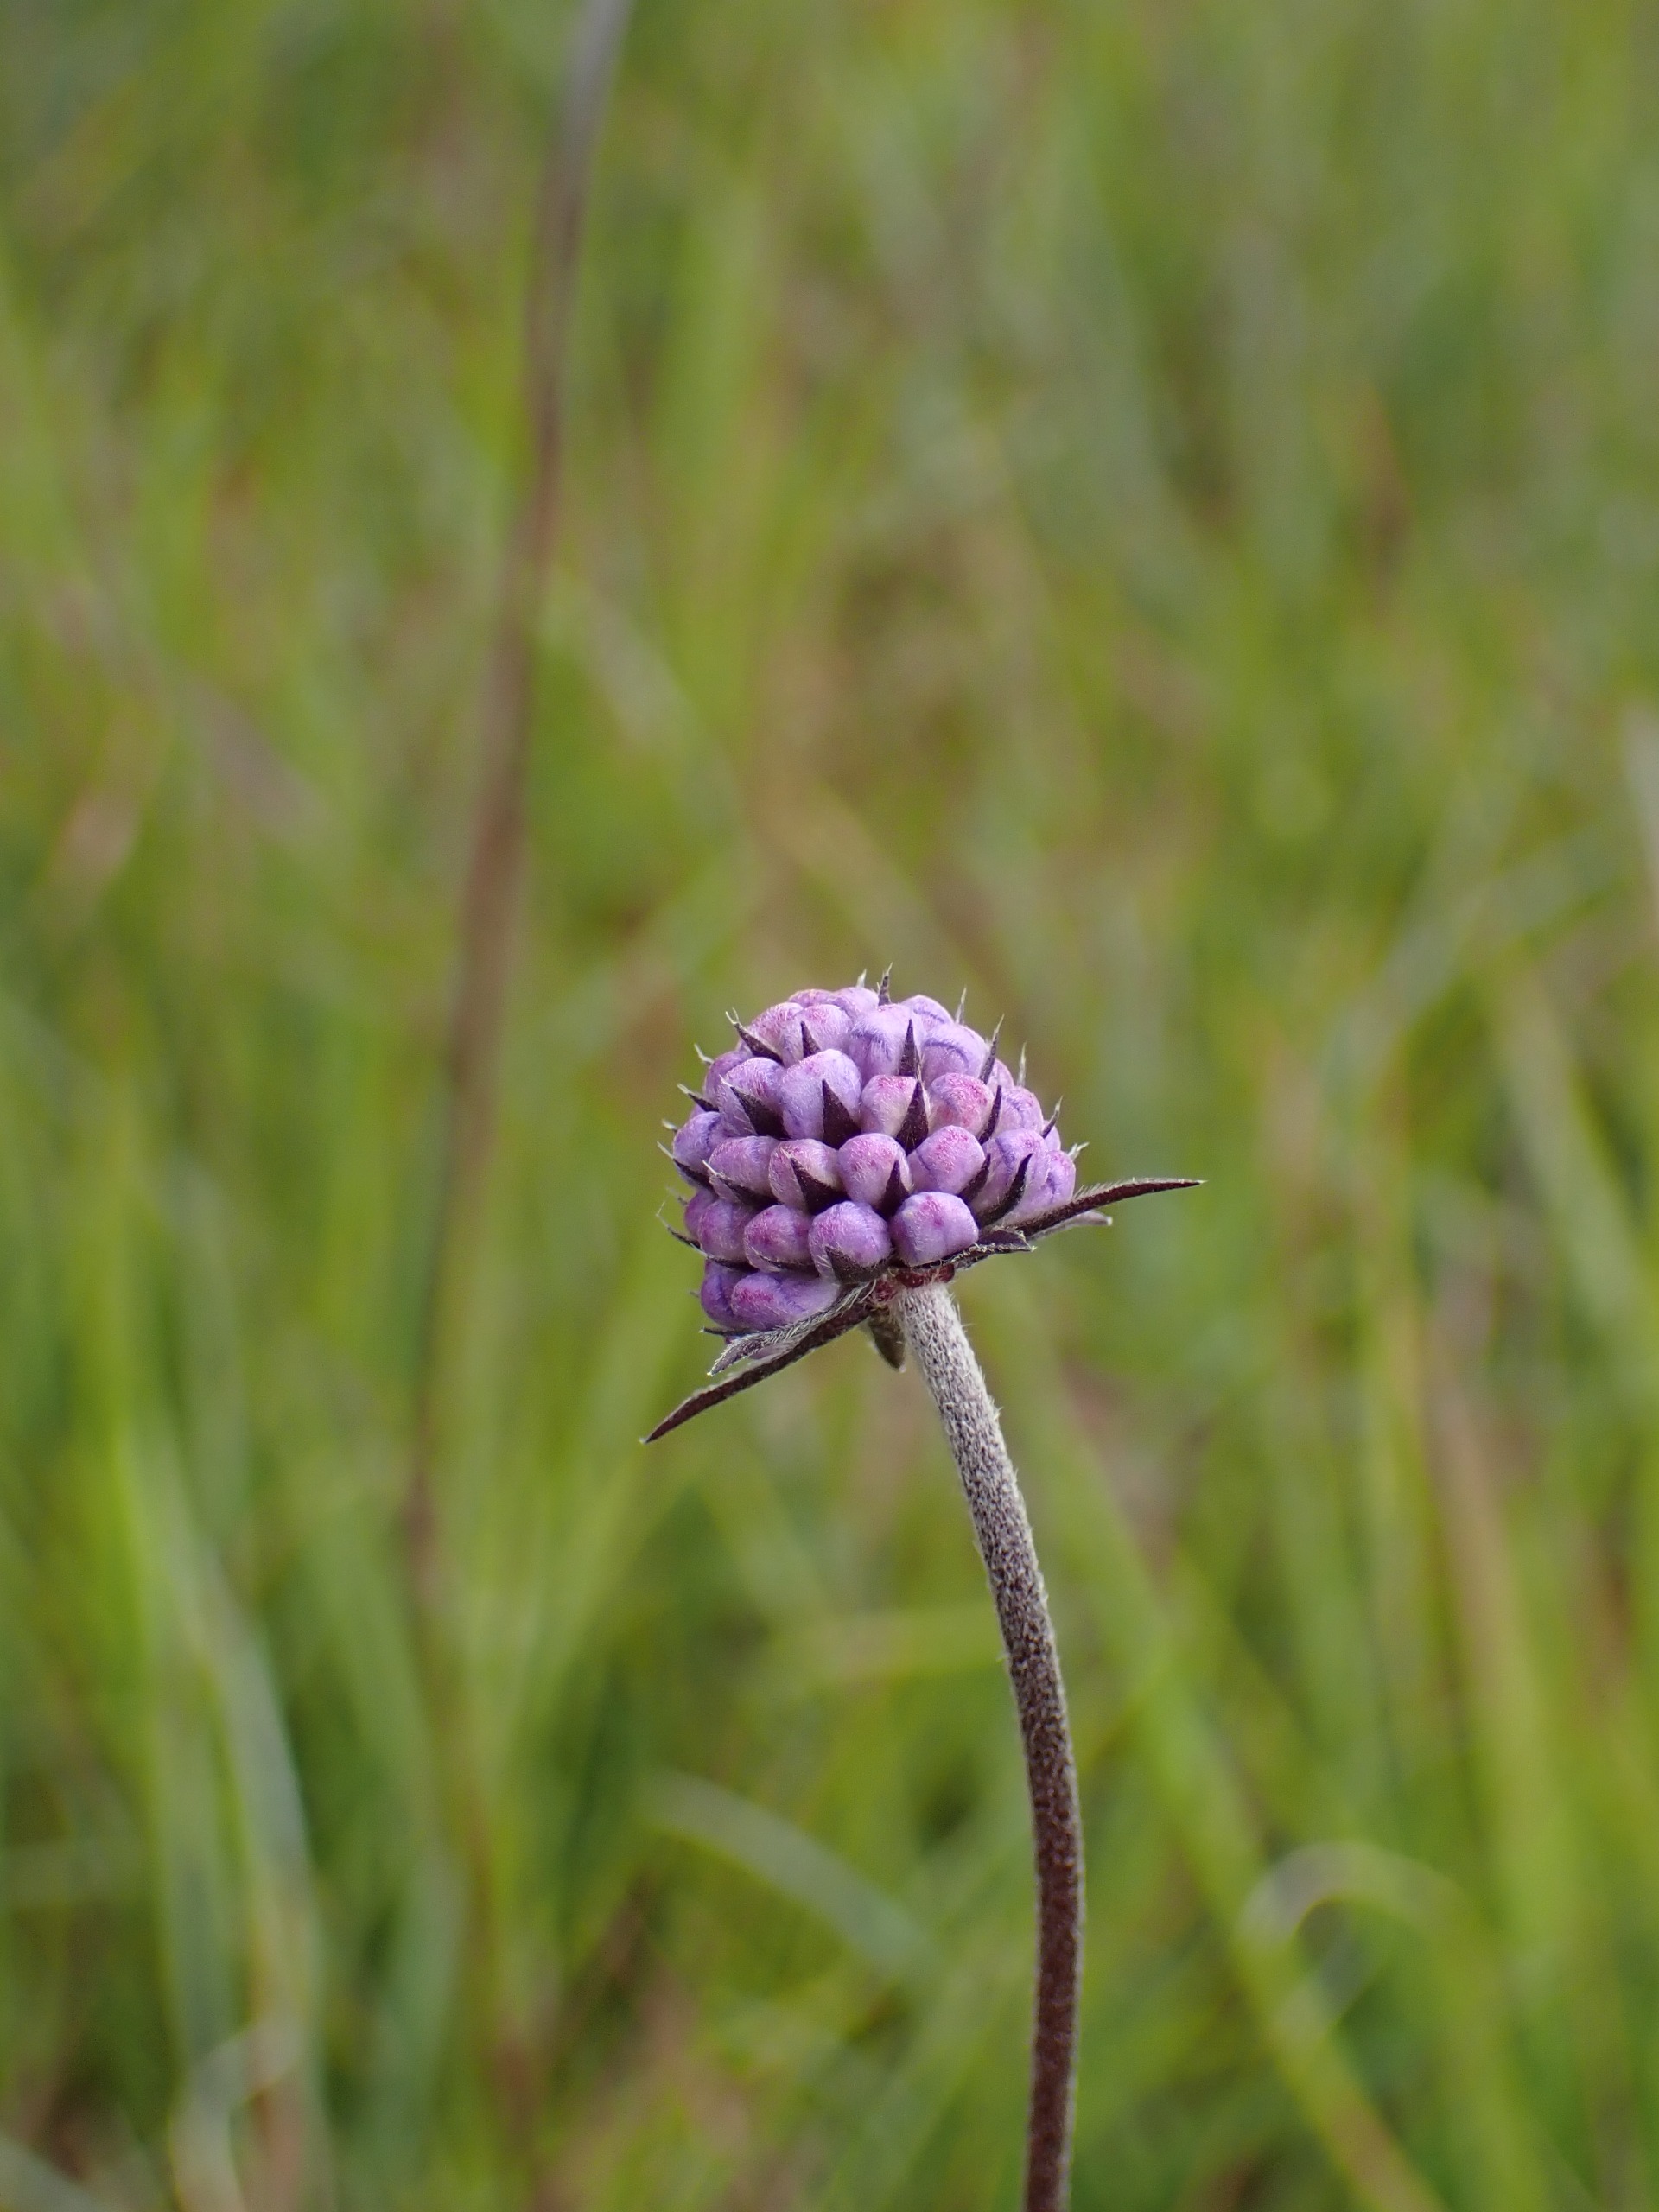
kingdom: Plantae
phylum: Tracheophyta
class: Magnoliopsida
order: Dipsacales
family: Caprifoliaceae
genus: Succisa
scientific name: Succisa pratensis
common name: Djævelsbid
